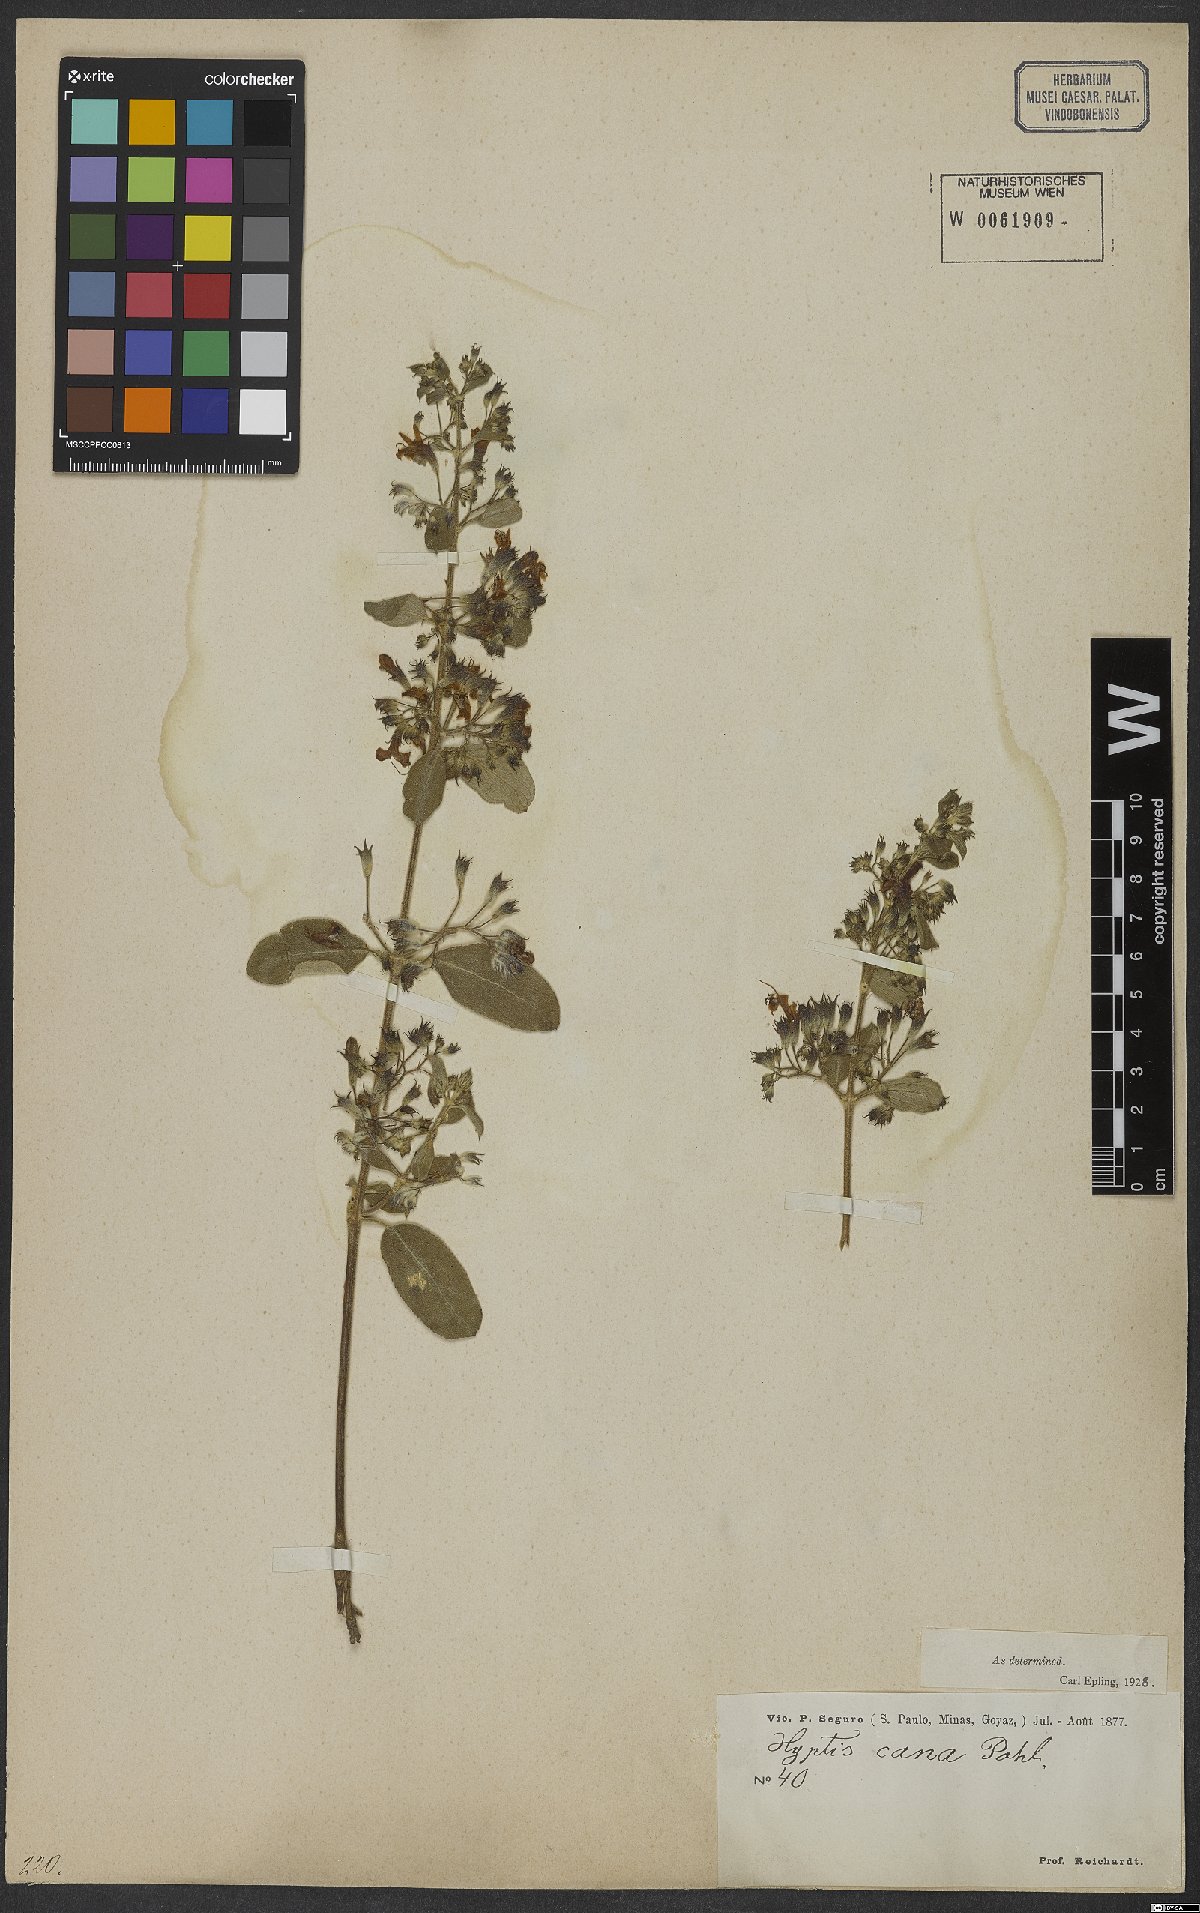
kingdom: Plantae
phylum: Tracheophyta
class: Magnoliopsida
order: Lamiales
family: Lamiaceae
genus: Hyptidendron
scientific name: Hyptidendron canum
